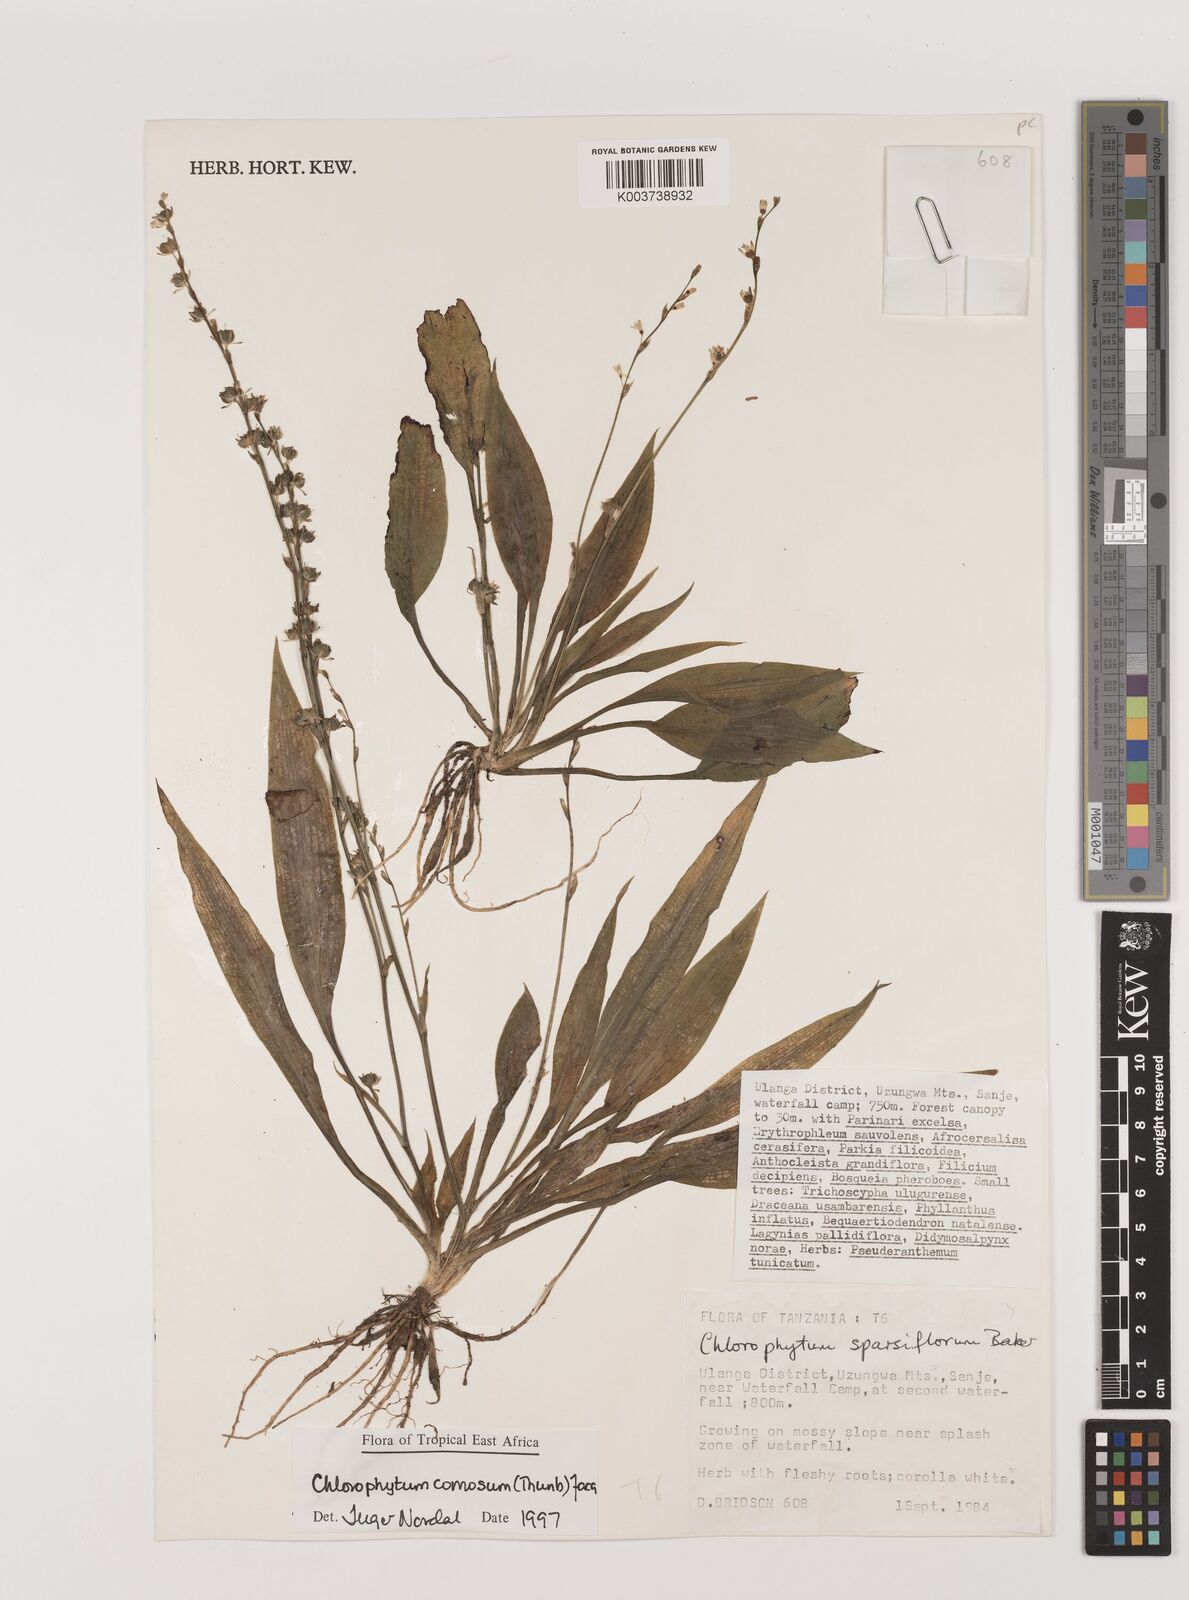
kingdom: Plantae
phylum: Tracheophyta
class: Liliopsida
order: Asparagales
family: Asparagaceae
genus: Chlorophytum
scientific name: Chlorophytum comosum
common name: Spider plant
